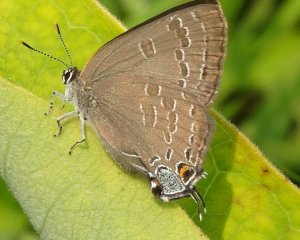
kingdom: Animalia
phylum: Arthropoda
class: Insecta
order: Lepidoptera
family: Lycaenidae
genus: Strymon
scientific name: Strymon caryaevorus
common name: Hickory Hairstreak
